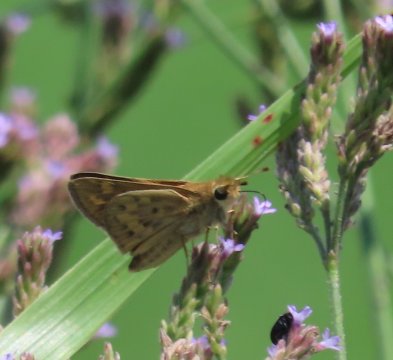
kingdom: Animalia
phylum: Arthropoda
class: Insecta
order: Lepidoptera
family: Hesperiidae
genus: Hylephila
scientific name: Hylephila phyleus
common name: Fiery Skipper
